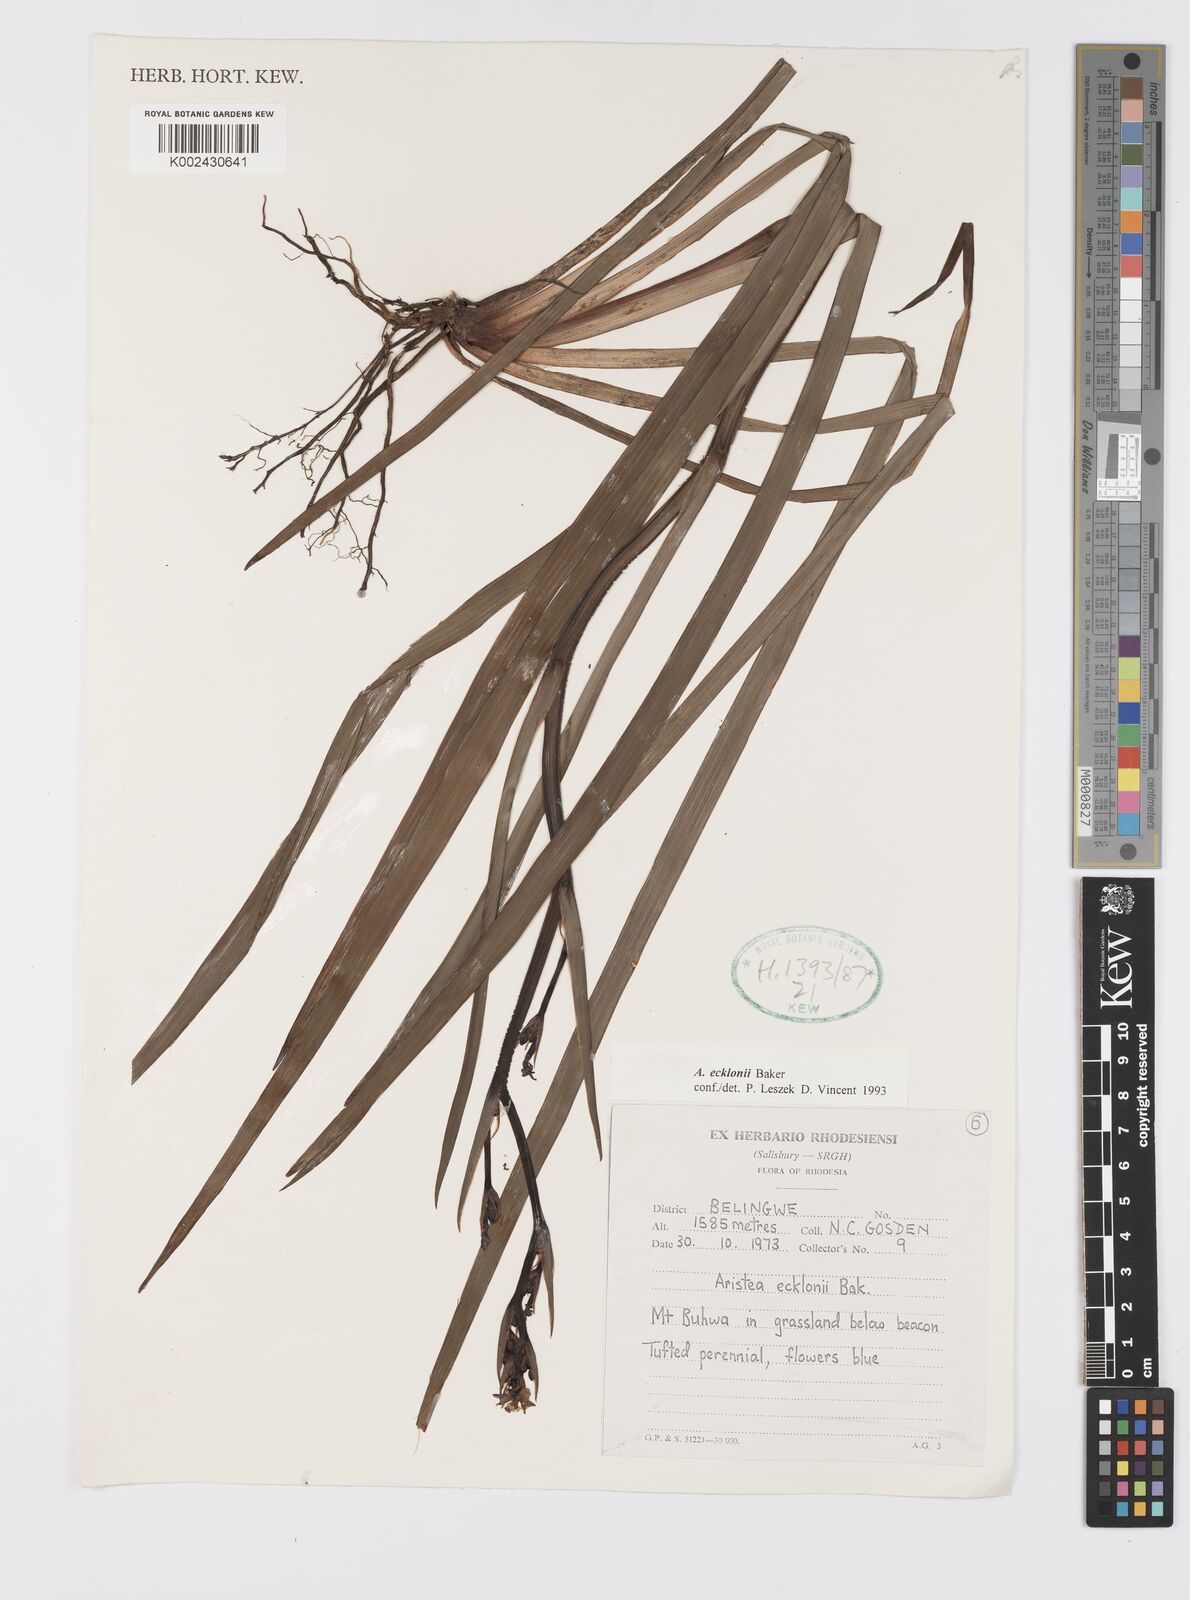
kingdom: Plantae
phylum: Tracheophyta
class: Liliopsida
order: Asparagales
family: Iridaceae
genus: Aristea
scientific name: Aristea ecklonii
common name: Blue corn-lily
